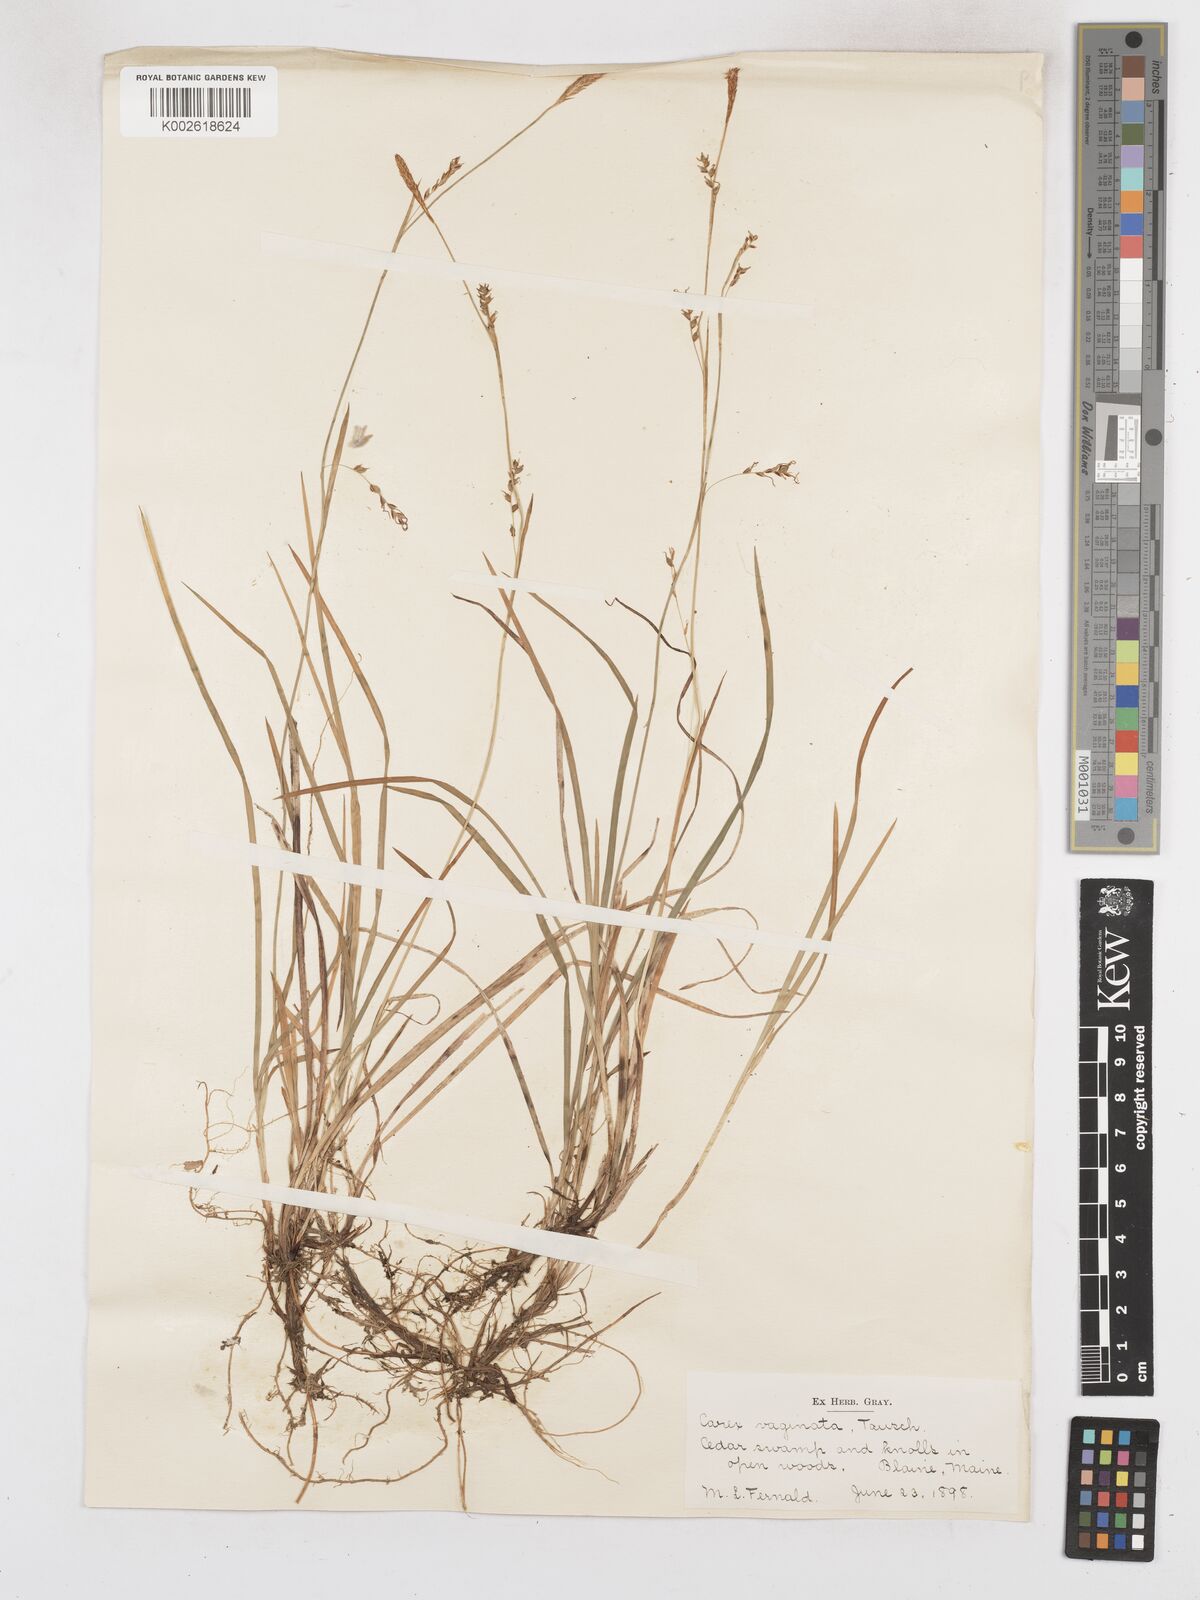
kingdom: Plantae
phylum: Tracheophyta
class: Liliopsida
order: Poales
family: Cyperaceae
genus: Carex
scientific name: Carex vaginata
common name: Sheathed sedge
